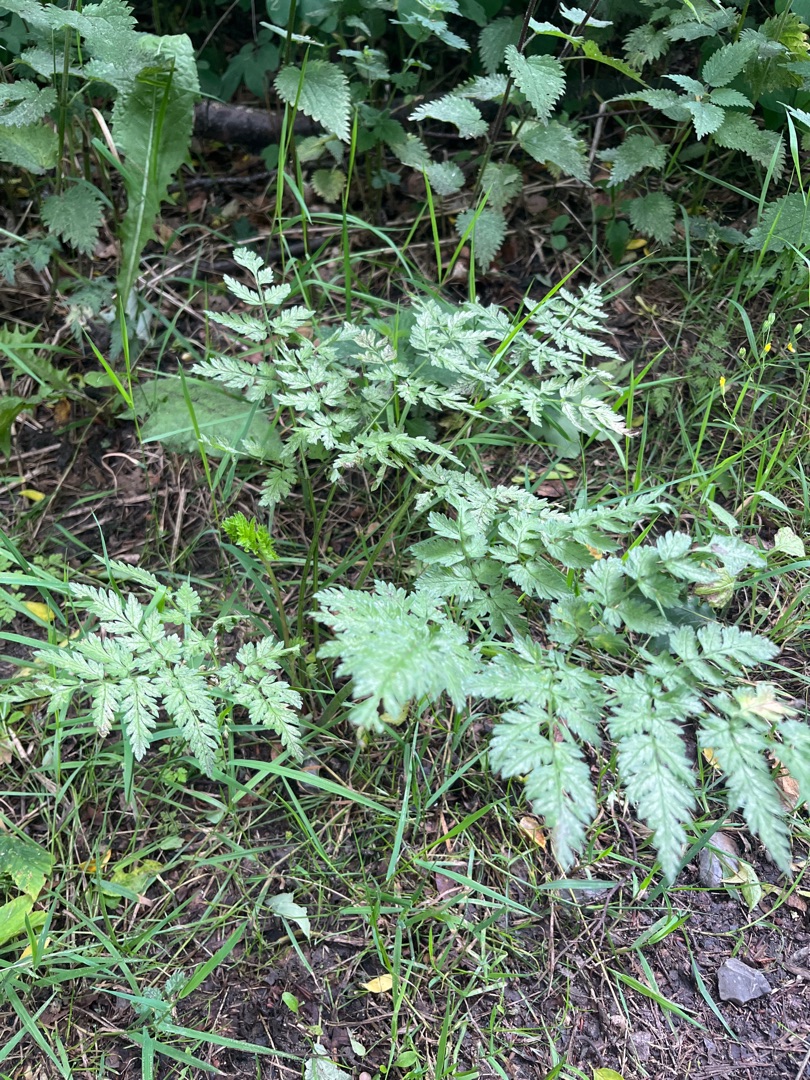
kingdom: Plantae
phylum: Tracheophyta
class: Magnoliopsida
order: Apiales
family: Apiaceae
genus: Anthriscus
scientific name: Anthriscus sylvestris
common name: Vild kørvel
